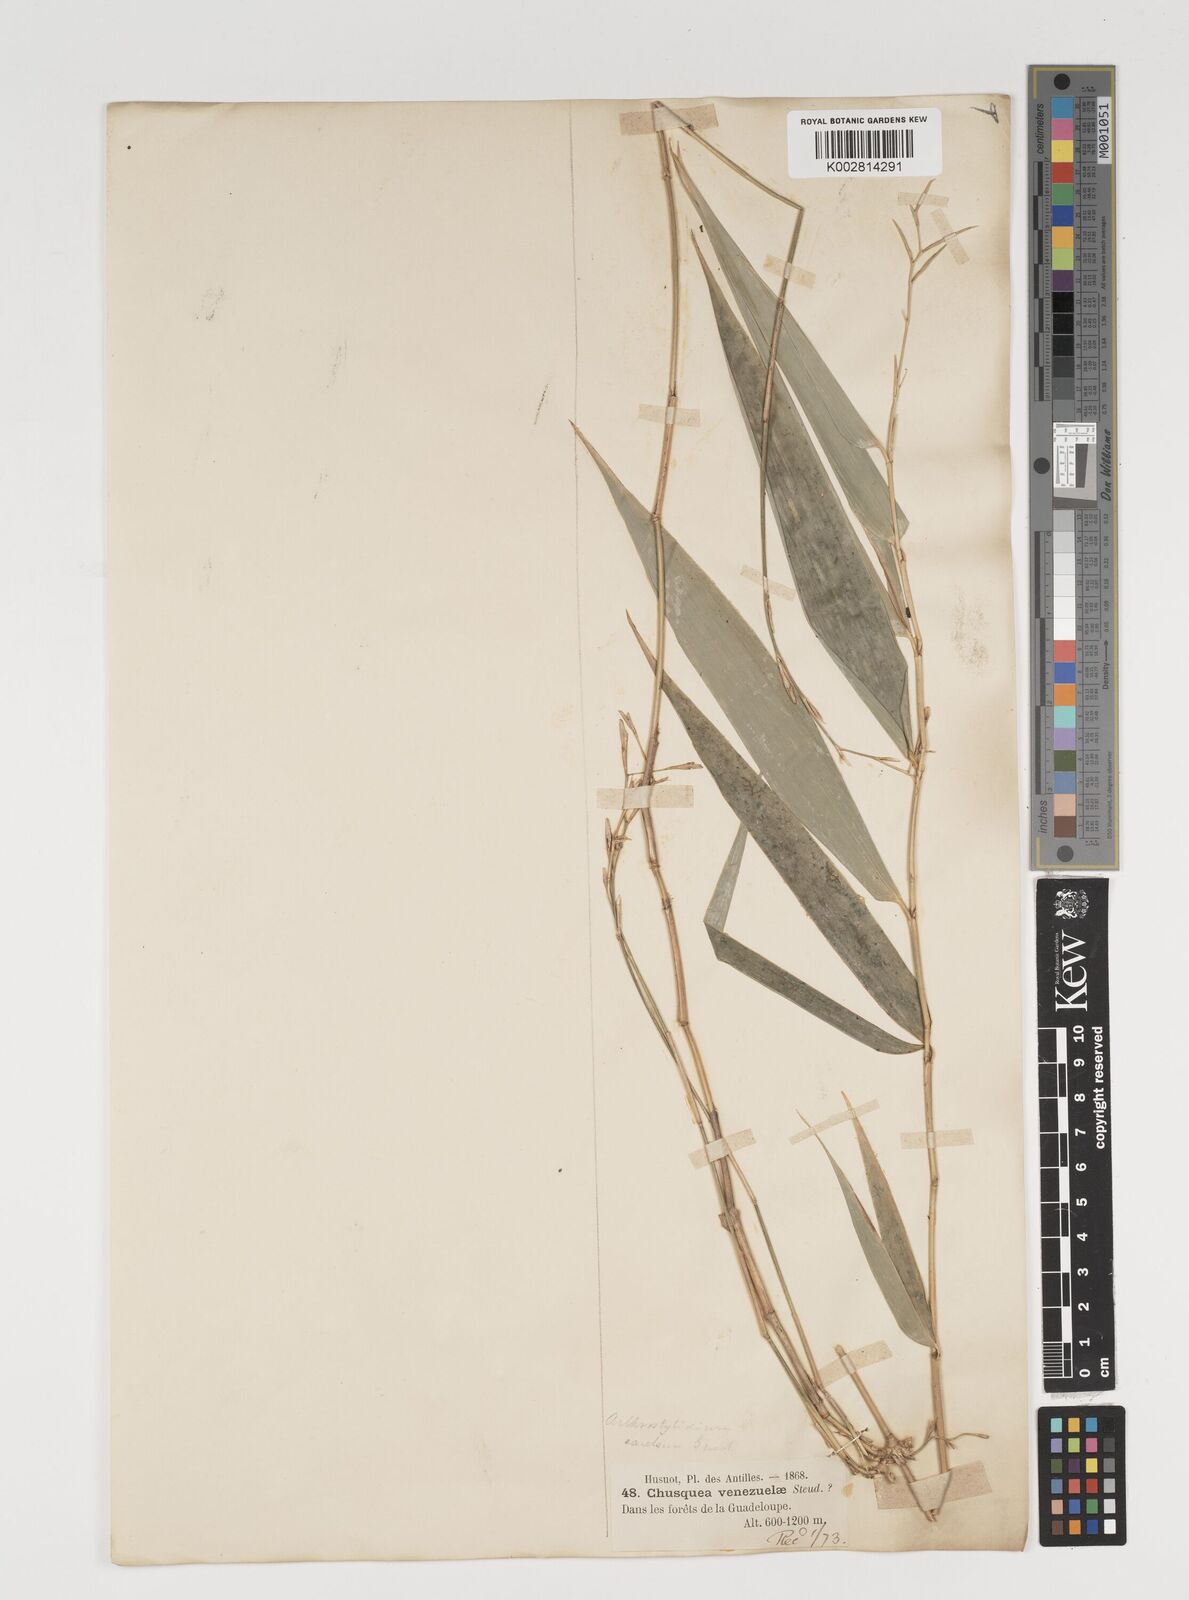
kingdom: Plantae
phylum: Tracheophyta
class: Liliopsida
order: Poales
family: Poaceae
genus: Arthrostylidium
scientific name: Arthrostylidium excelsum
